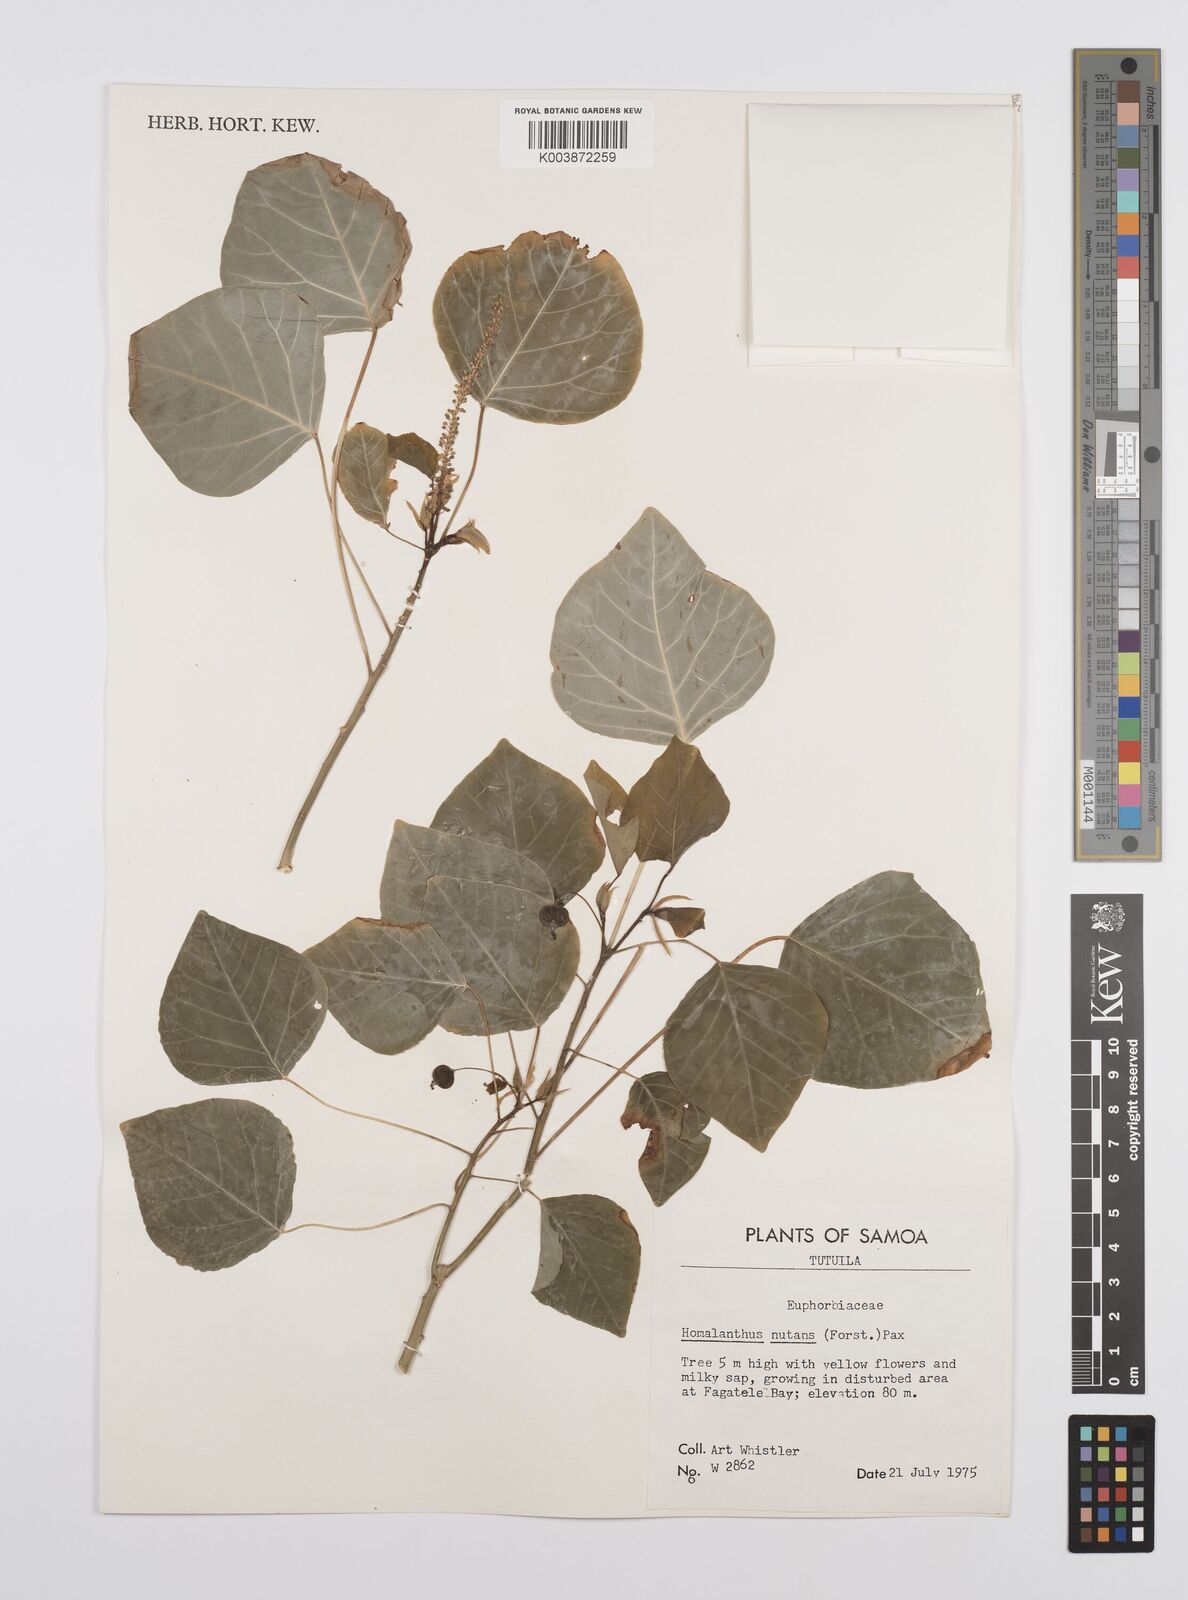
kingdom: Plantae
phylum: Tracheophyta
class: Magnoliopsida
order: Malpighiales
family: Euphorbiaceae
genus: Homalanthus
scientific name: Homalanthus nutans
